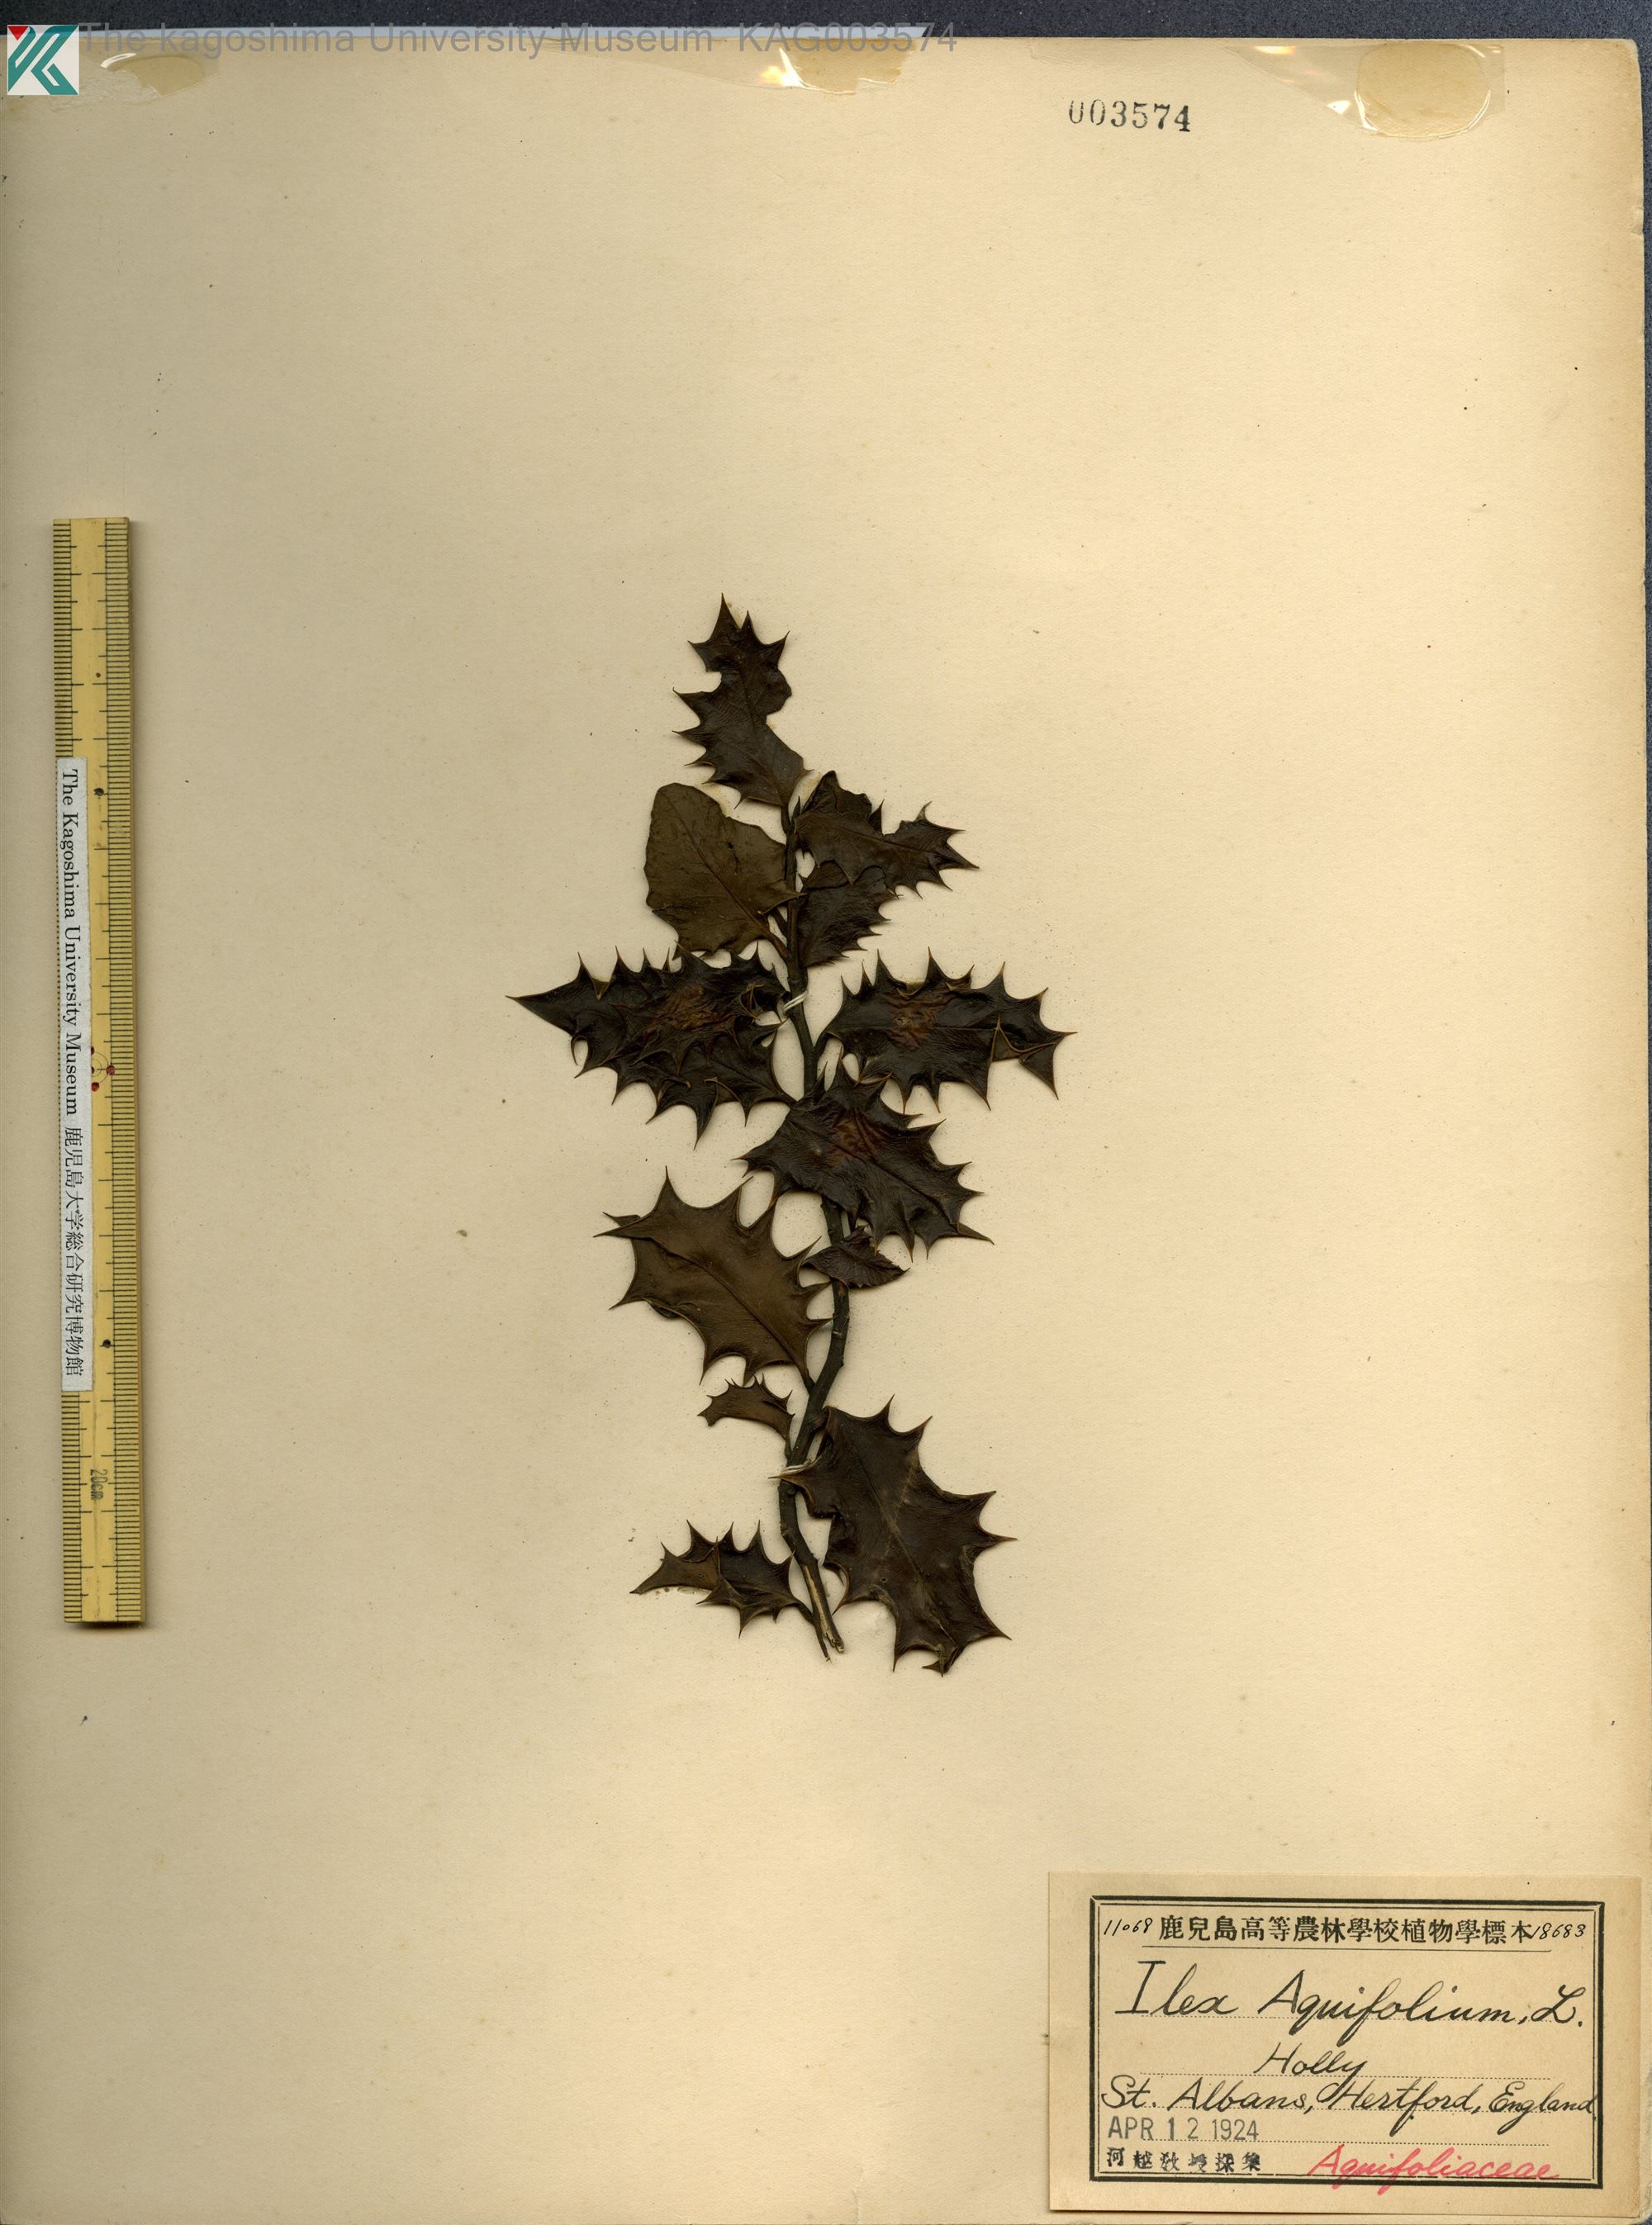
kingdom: Plantae
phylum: Tracheophyta
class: Magnoliopsida
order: Aquifoliales
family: Aquifoliaceae
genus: Ilex
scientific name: Ilex aquifolium
